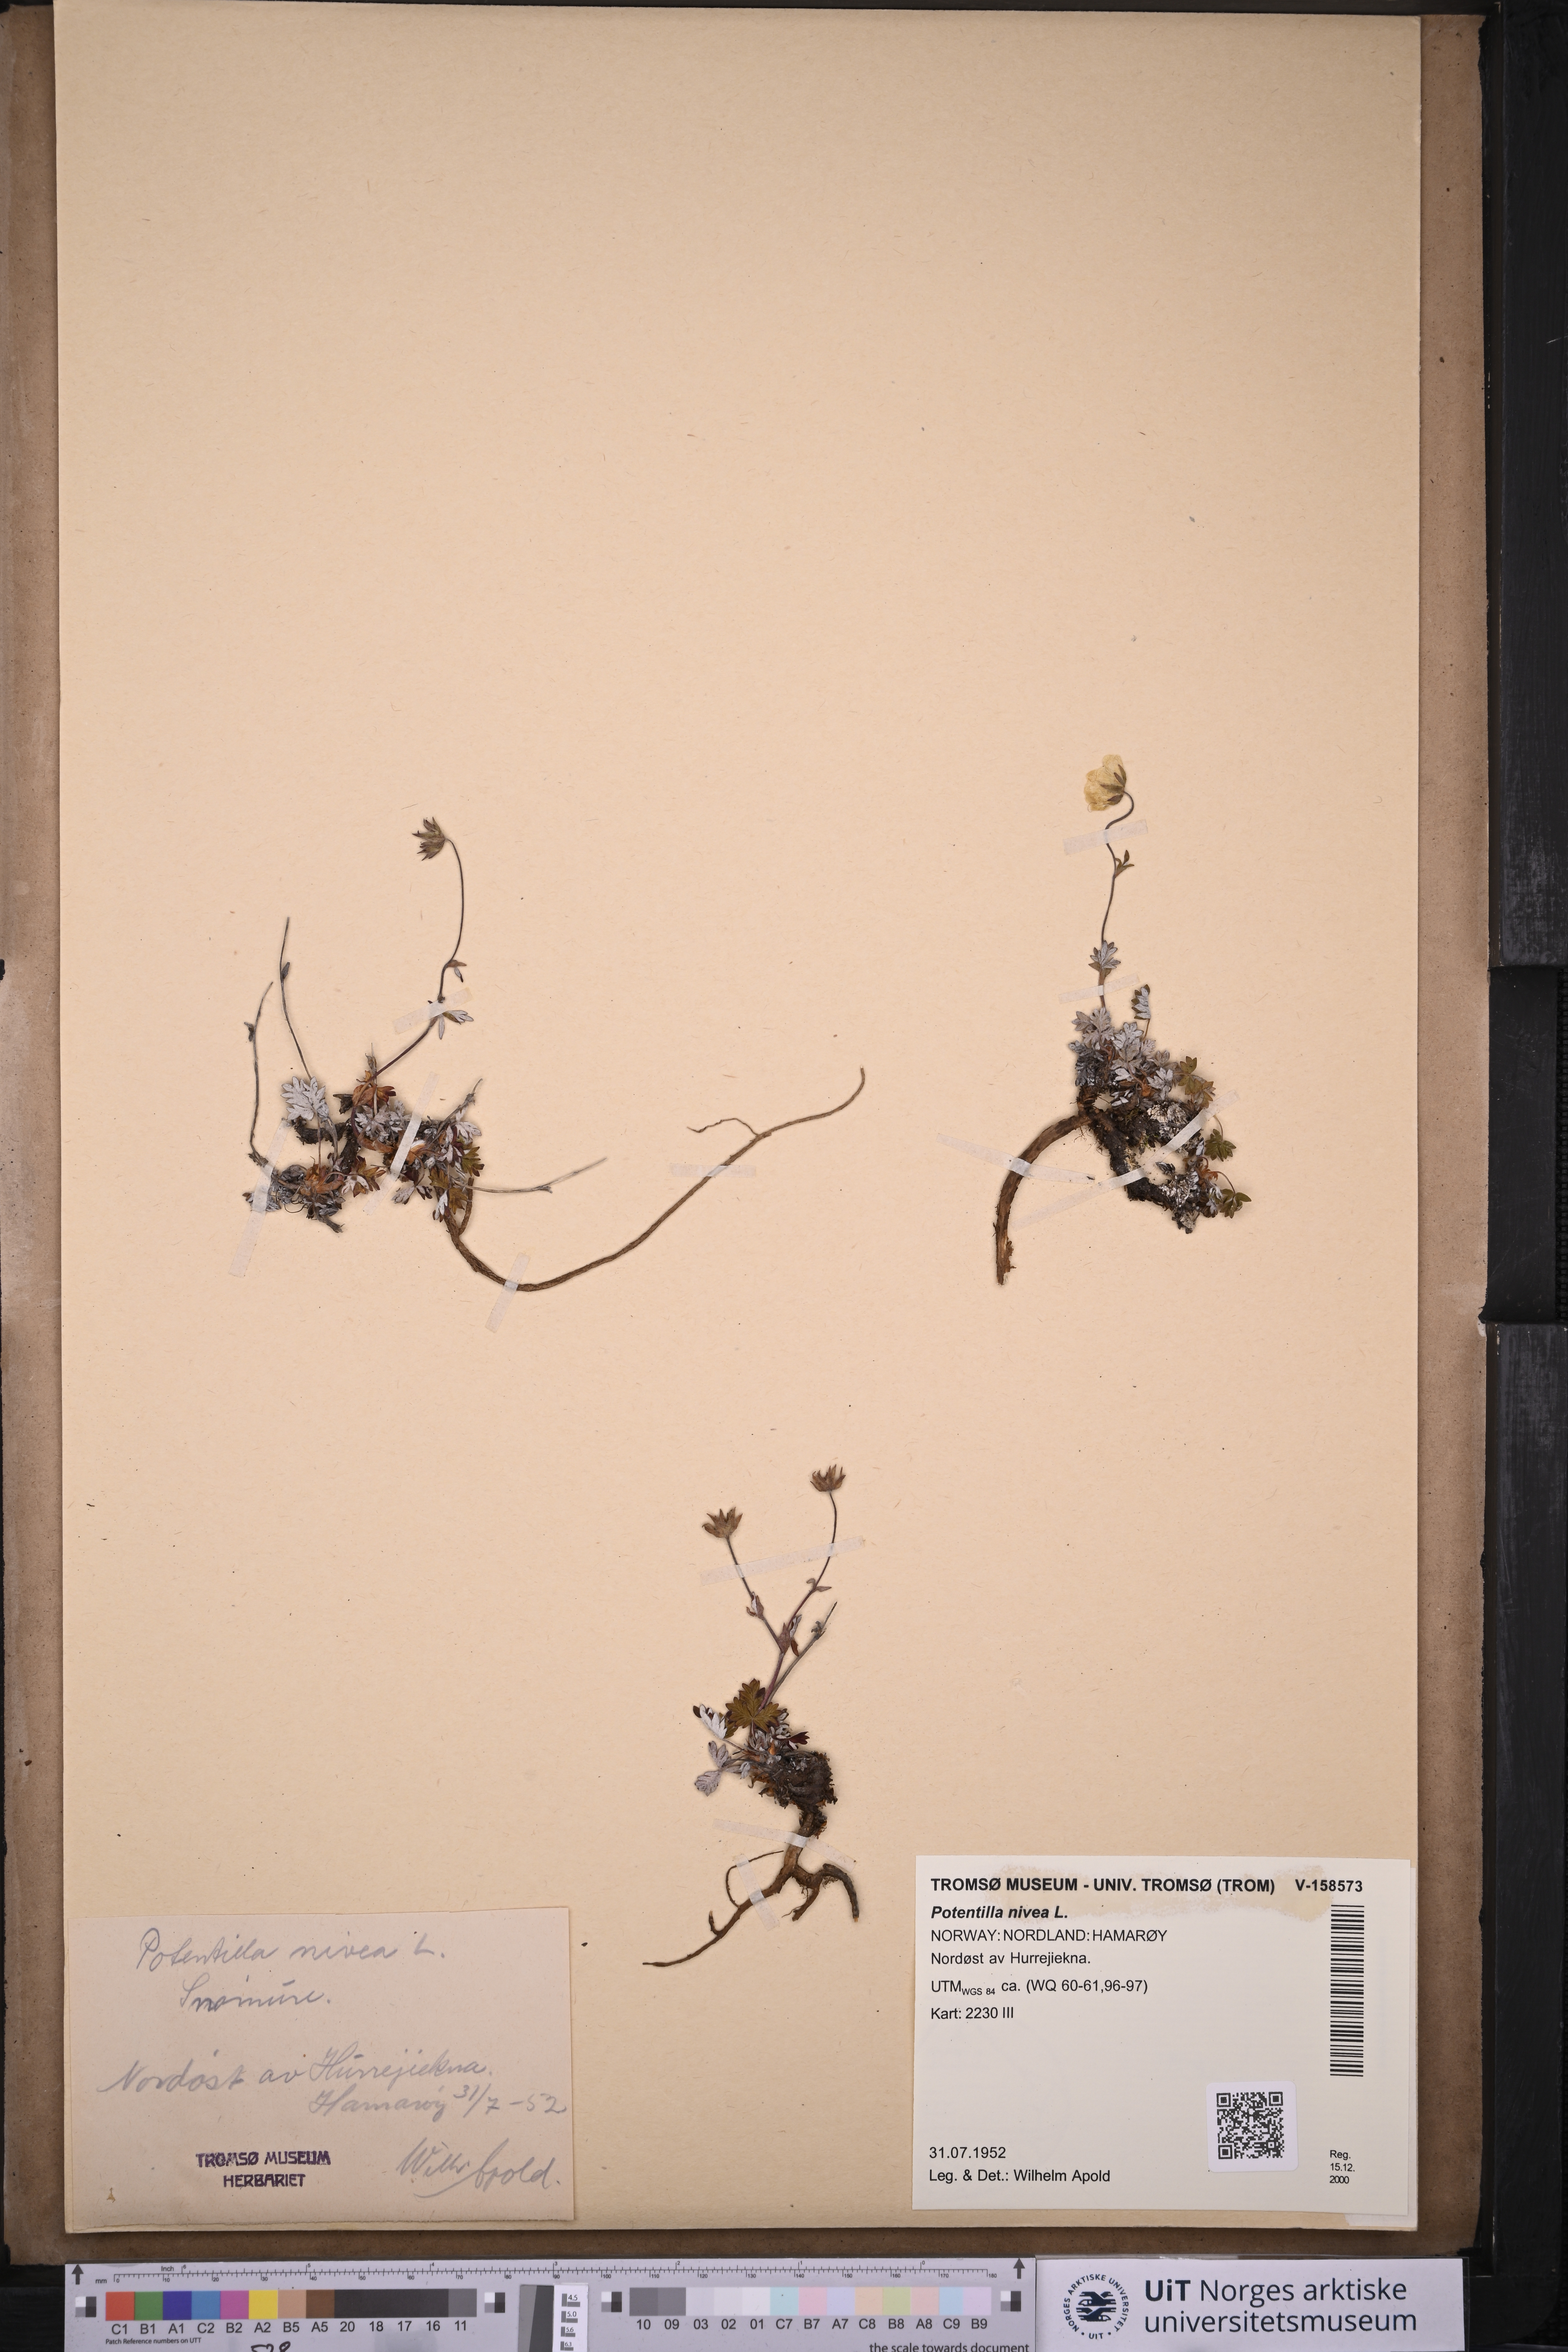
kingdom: Plantae
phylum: Tracheophyta
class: Magnoliopsida
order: Rosales
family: Rosaceae
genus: Potentilla
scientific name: Potentilla arenosa
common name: Bluff cinquefoil
